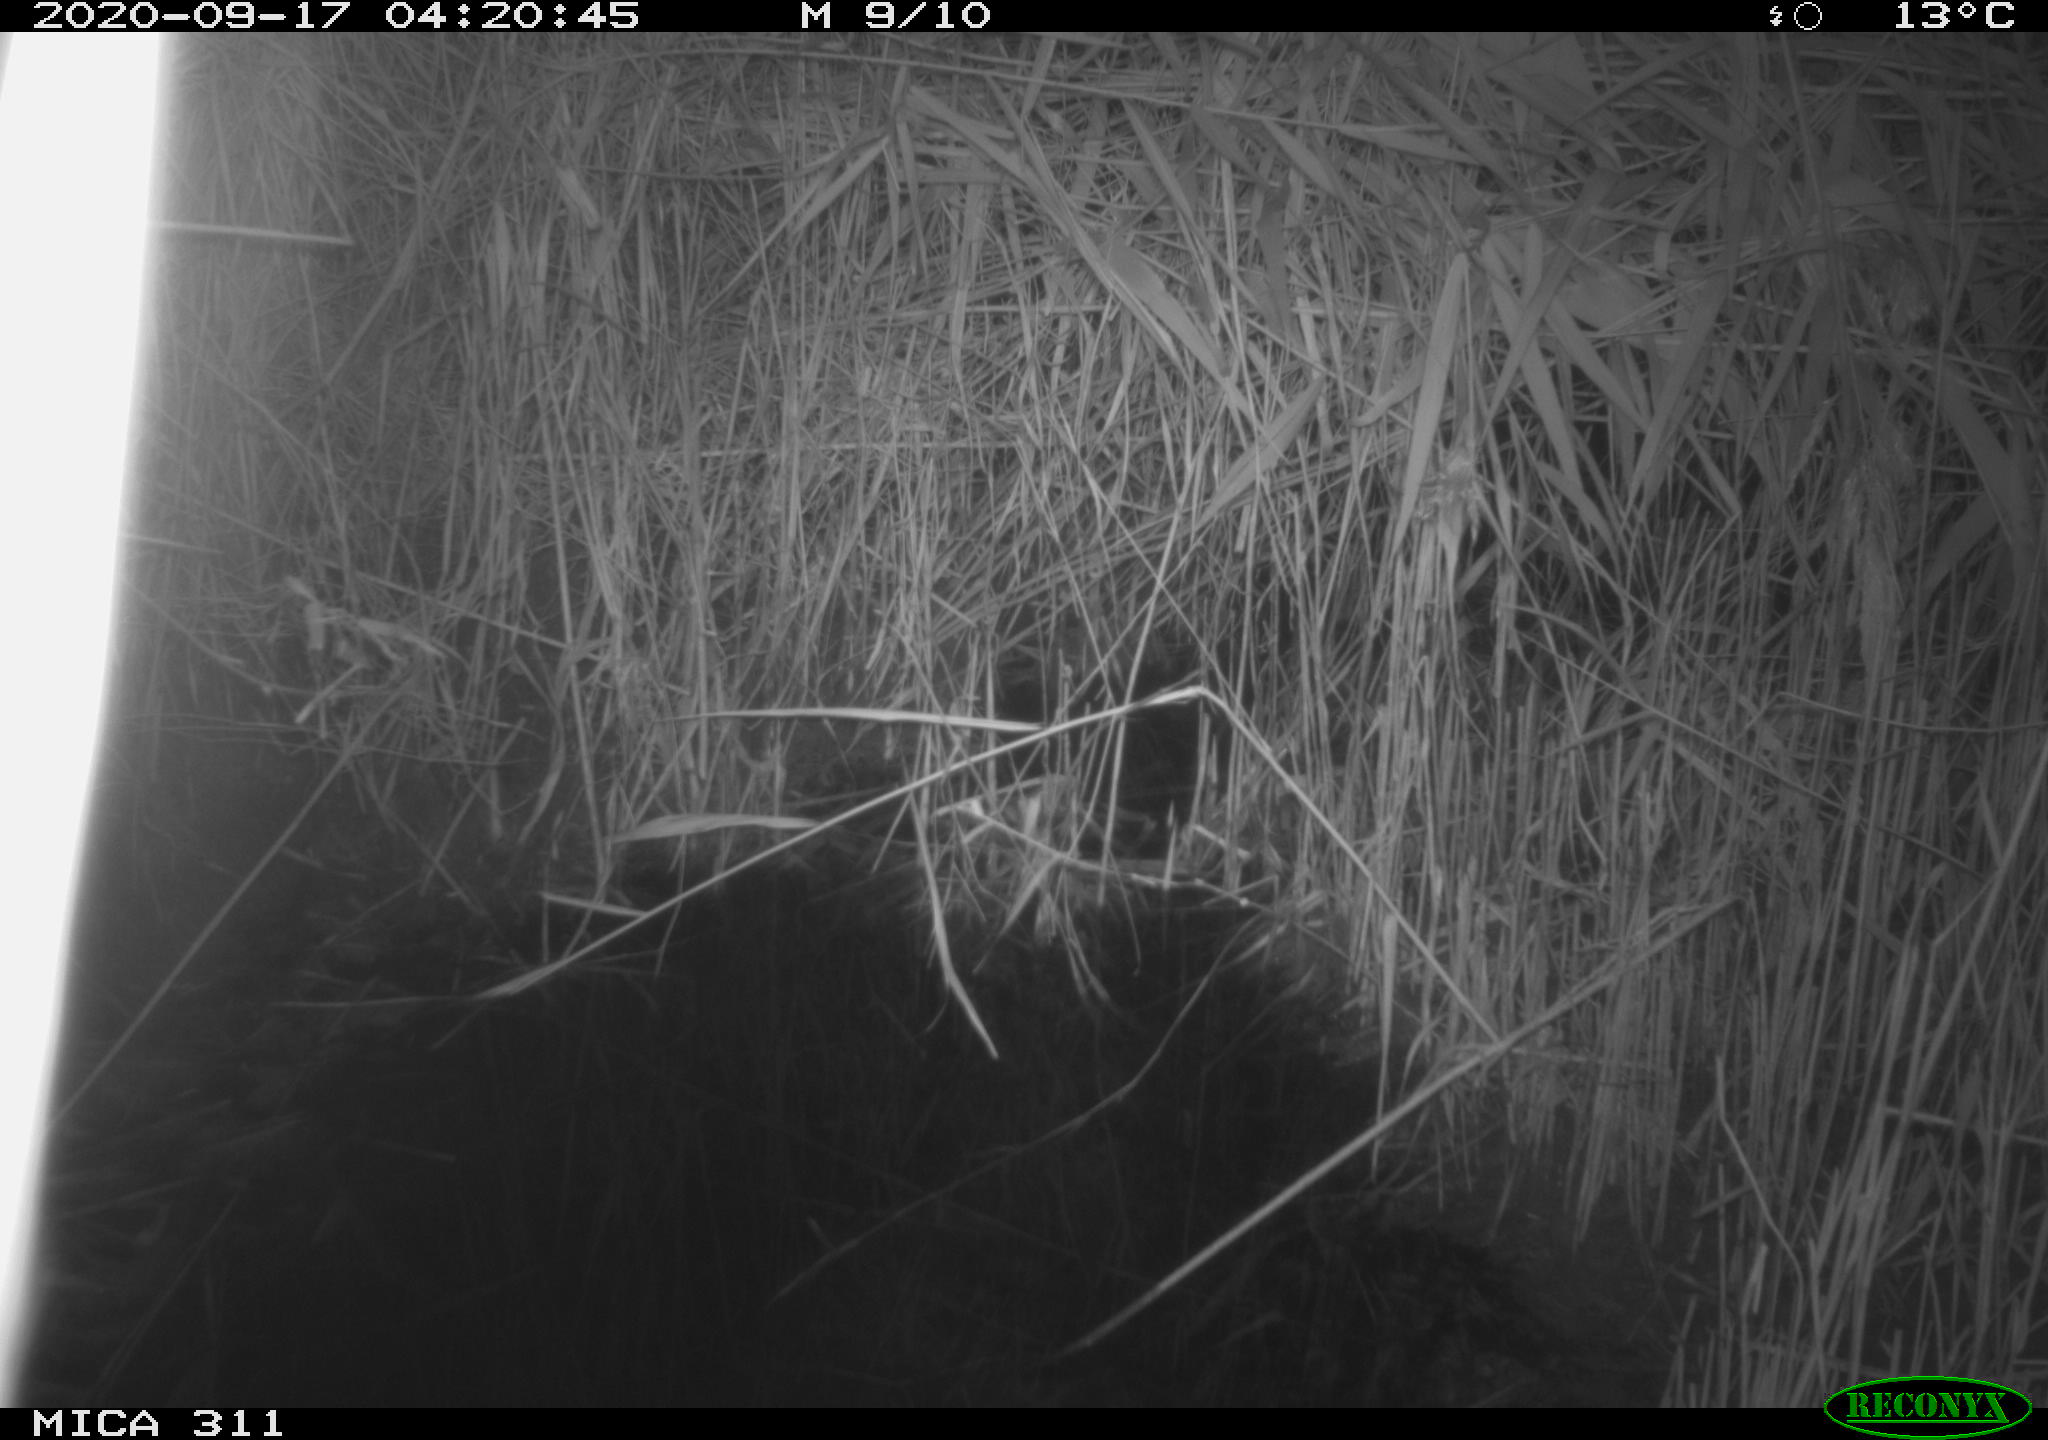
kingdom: Animalia
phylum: Chordata
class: Mammalia
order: Rodentia
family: Muridae
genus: Rattus
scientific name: Rattus norvegicus
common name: Brown rat
